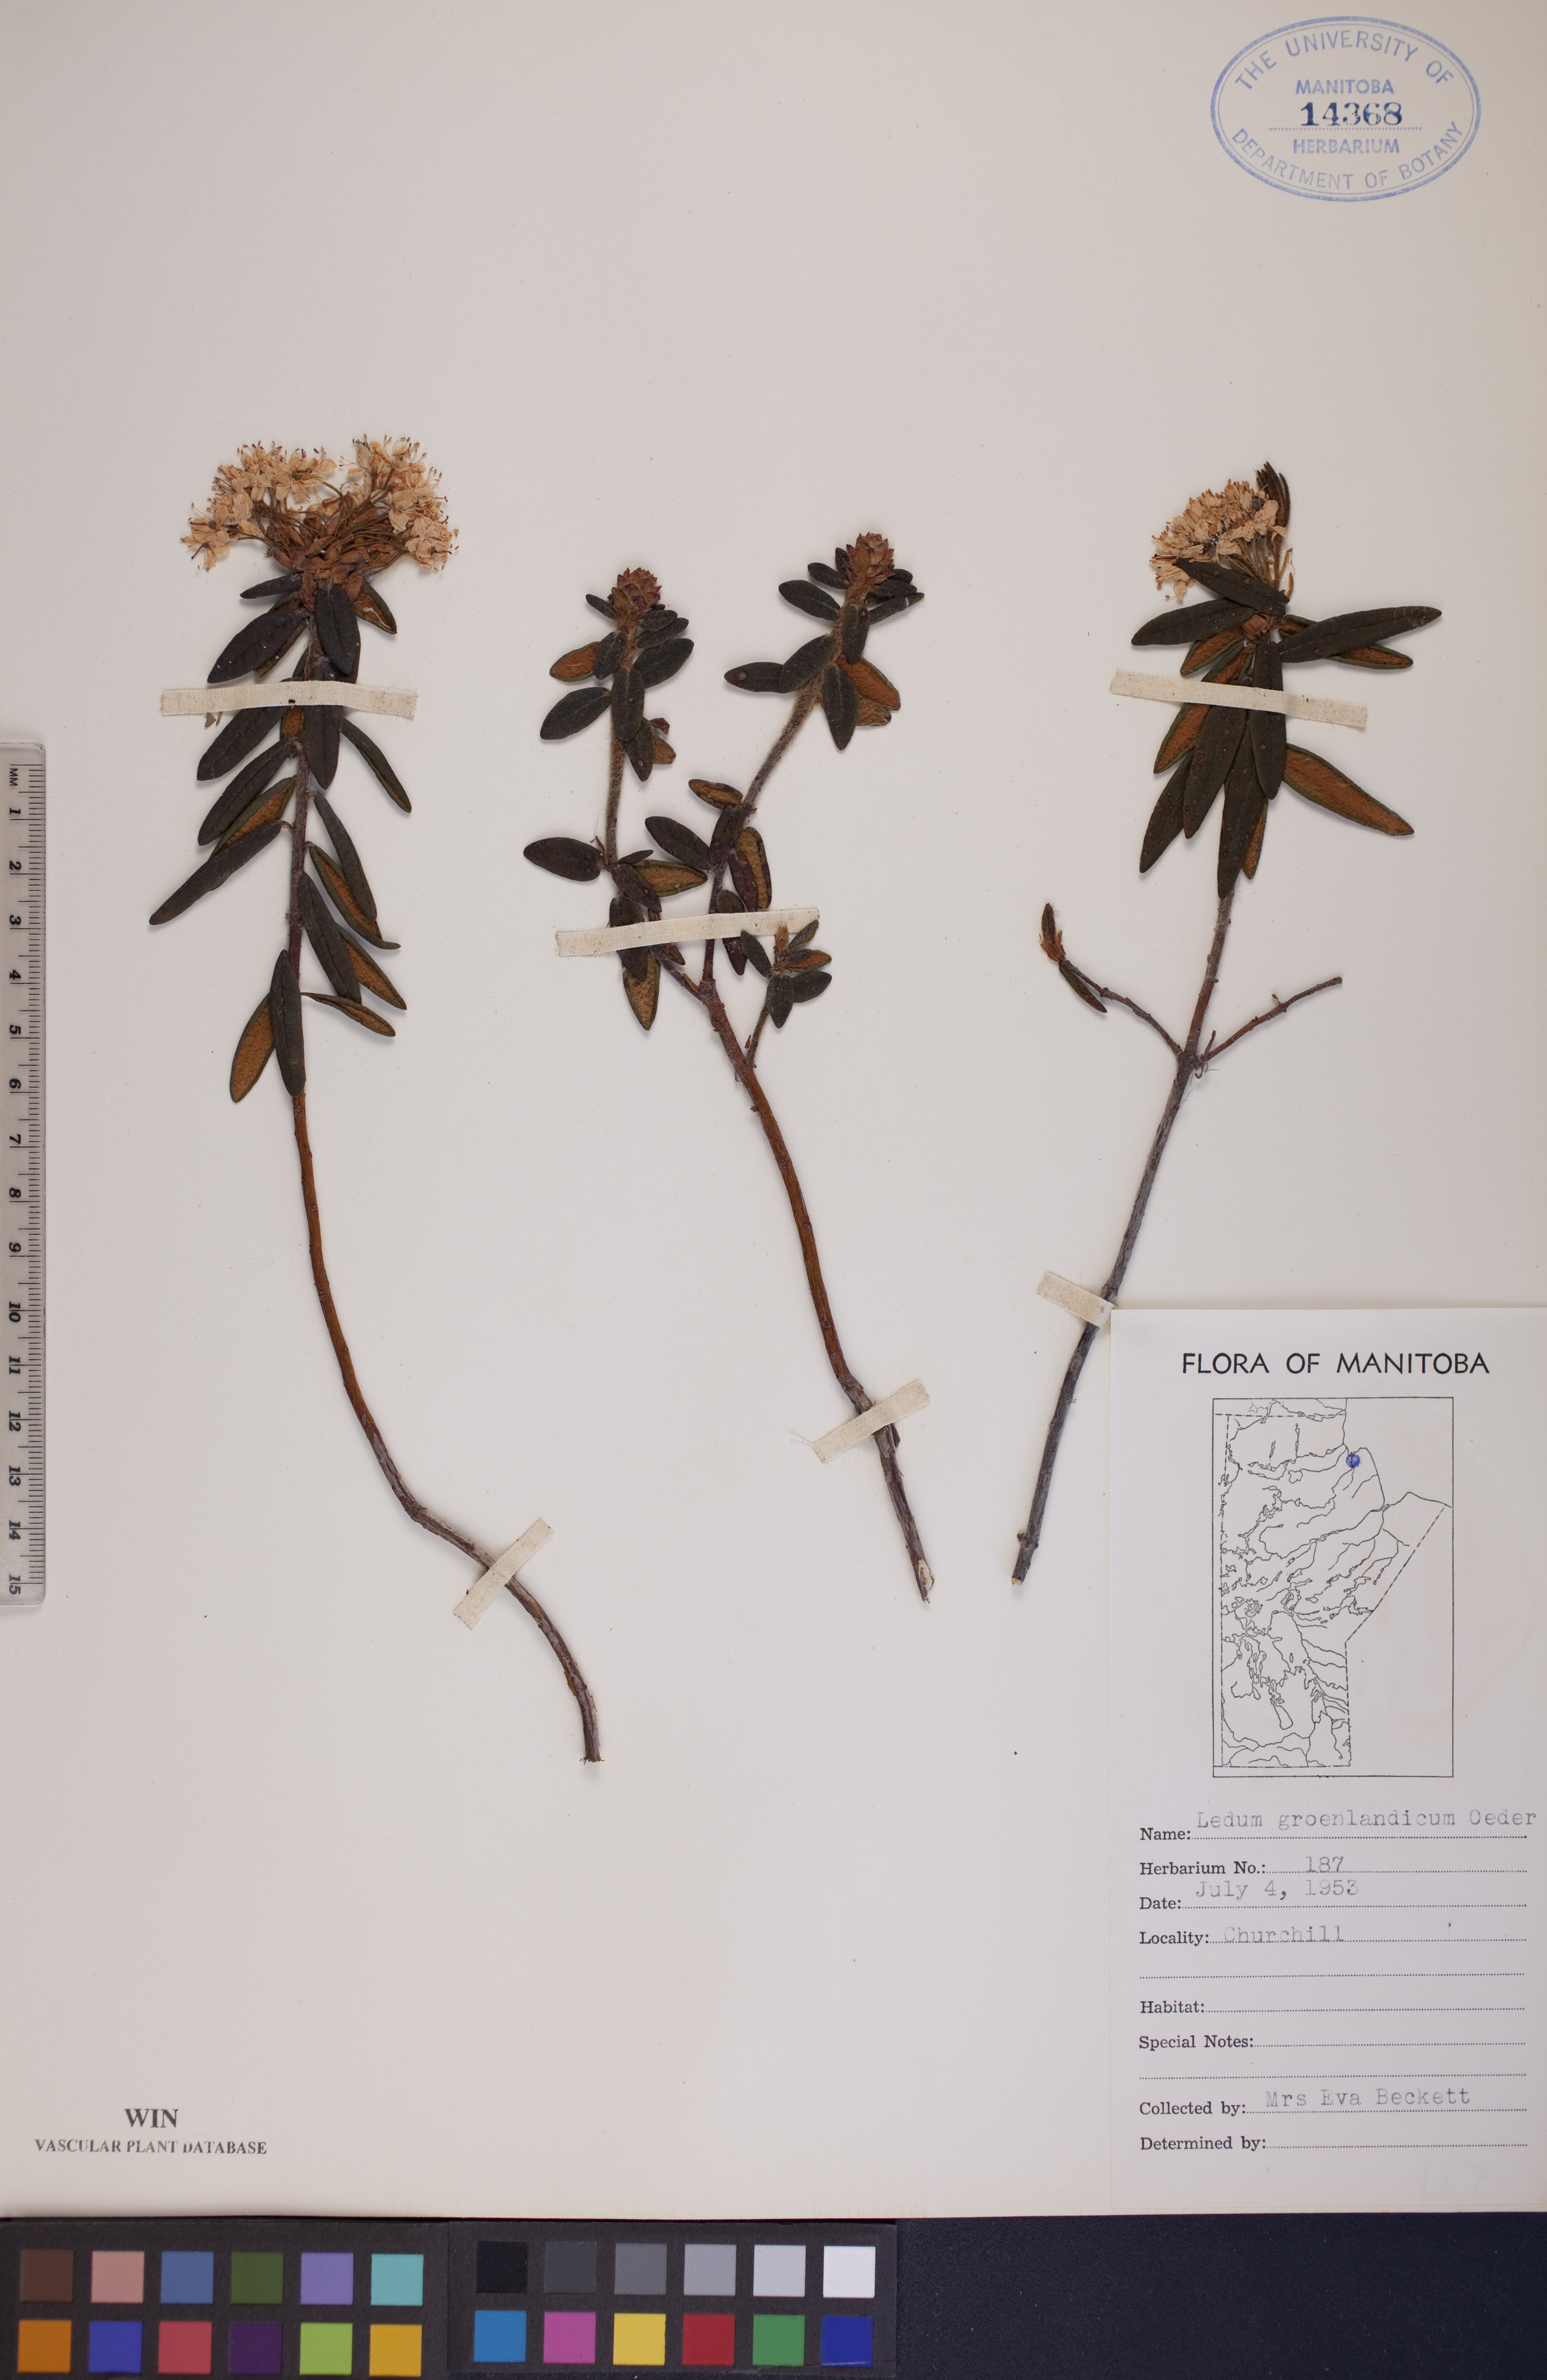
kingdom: Plantae
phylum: Tracheophyta
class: Magnoliopsida
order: Ericales
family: Ericaceae
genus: Rhododendron
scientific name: Rhododendron groenlandicum
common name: Bog labrador tea
